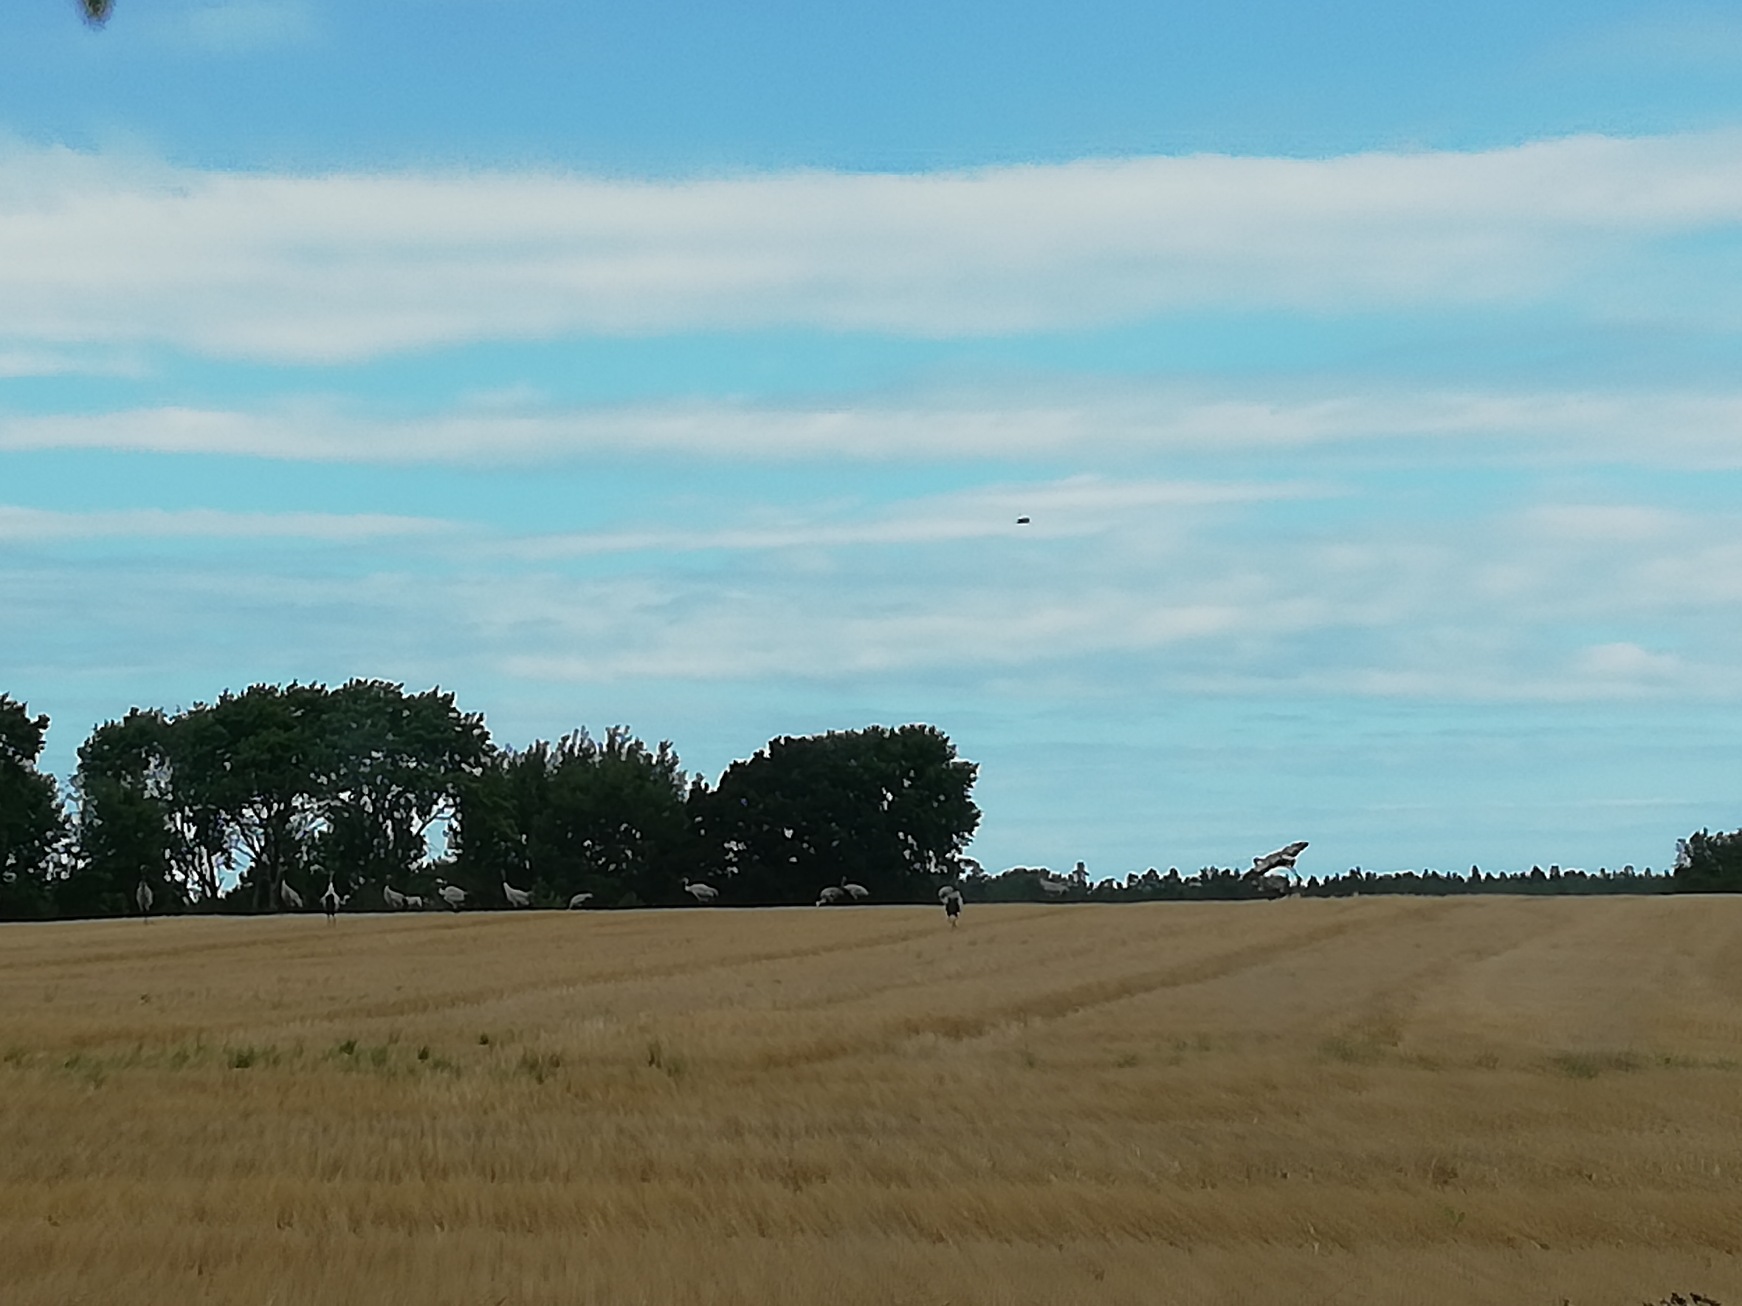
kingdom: Animalia
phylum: Chordata
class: Aves
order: Gruiformes
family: Gruidae
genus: Grus
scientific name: Grus grus
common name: Trane
